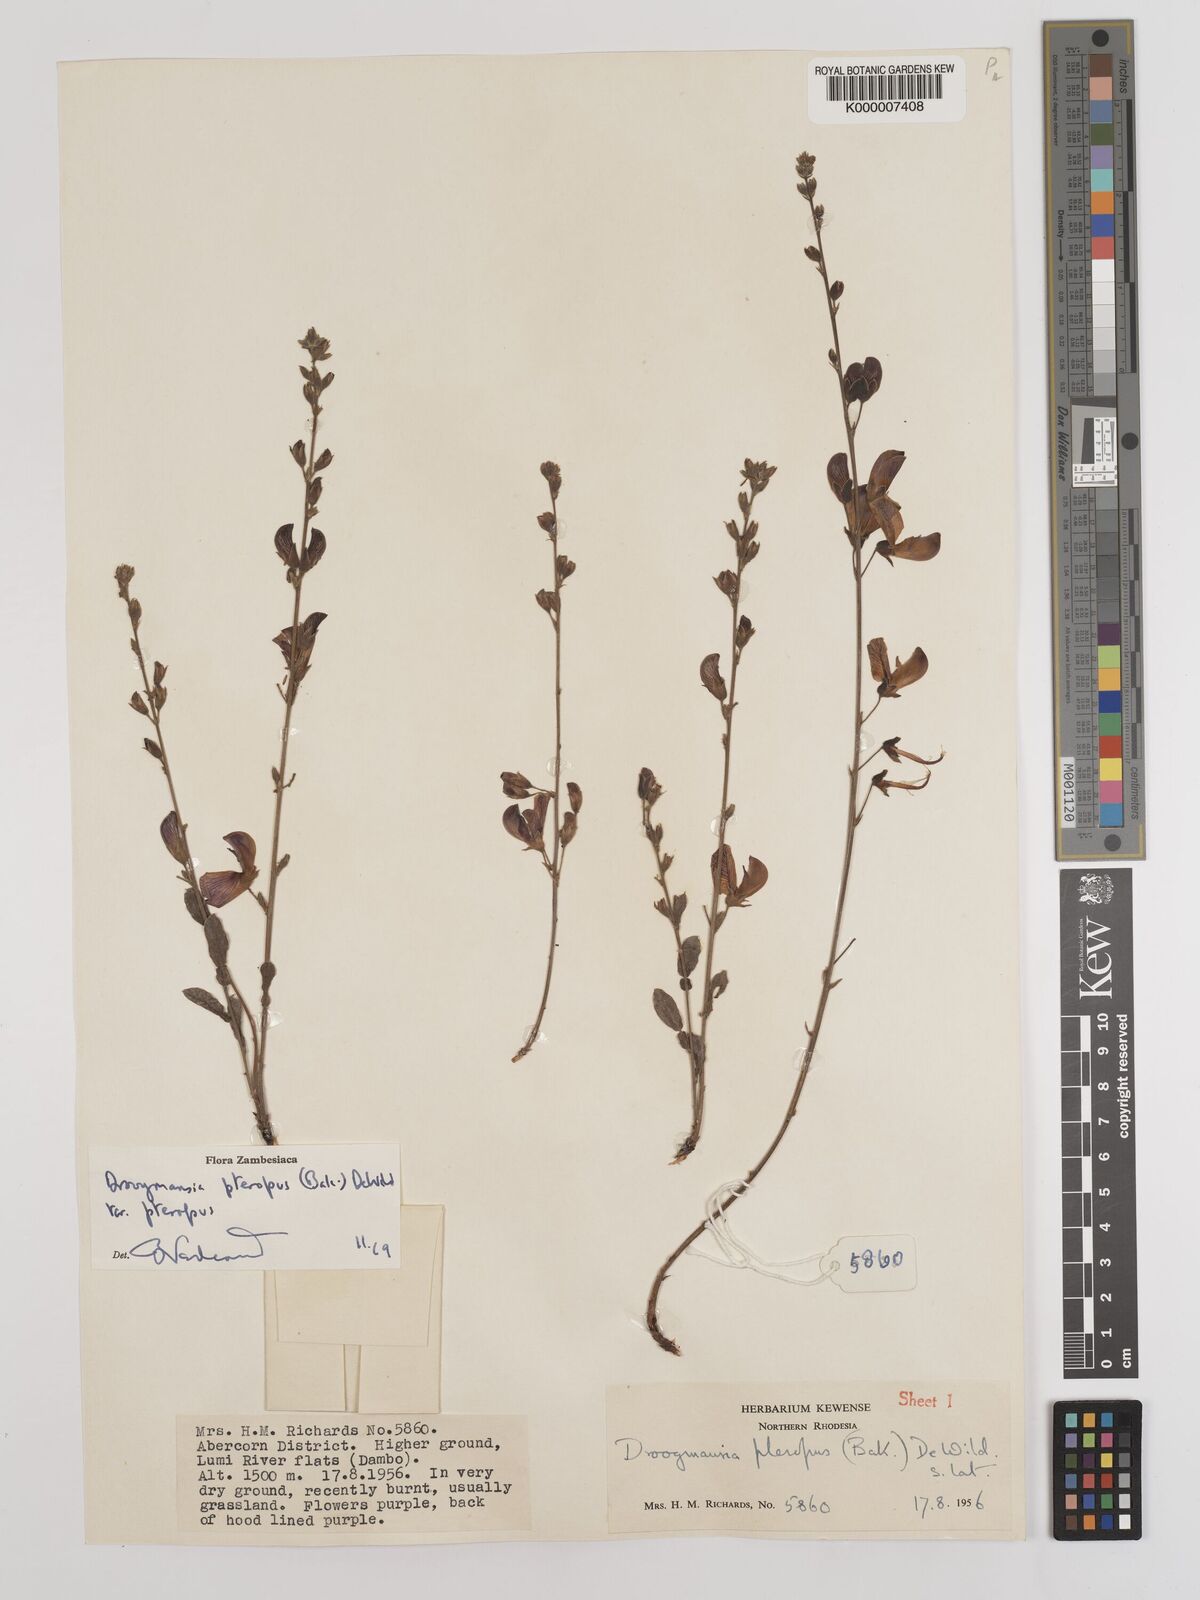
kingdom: Plantae
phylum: Tracheophyta
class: Magnoliopsida
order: Fabales
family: Fabaceae
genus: Droogmansia
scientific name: Droogmansia pteropus
